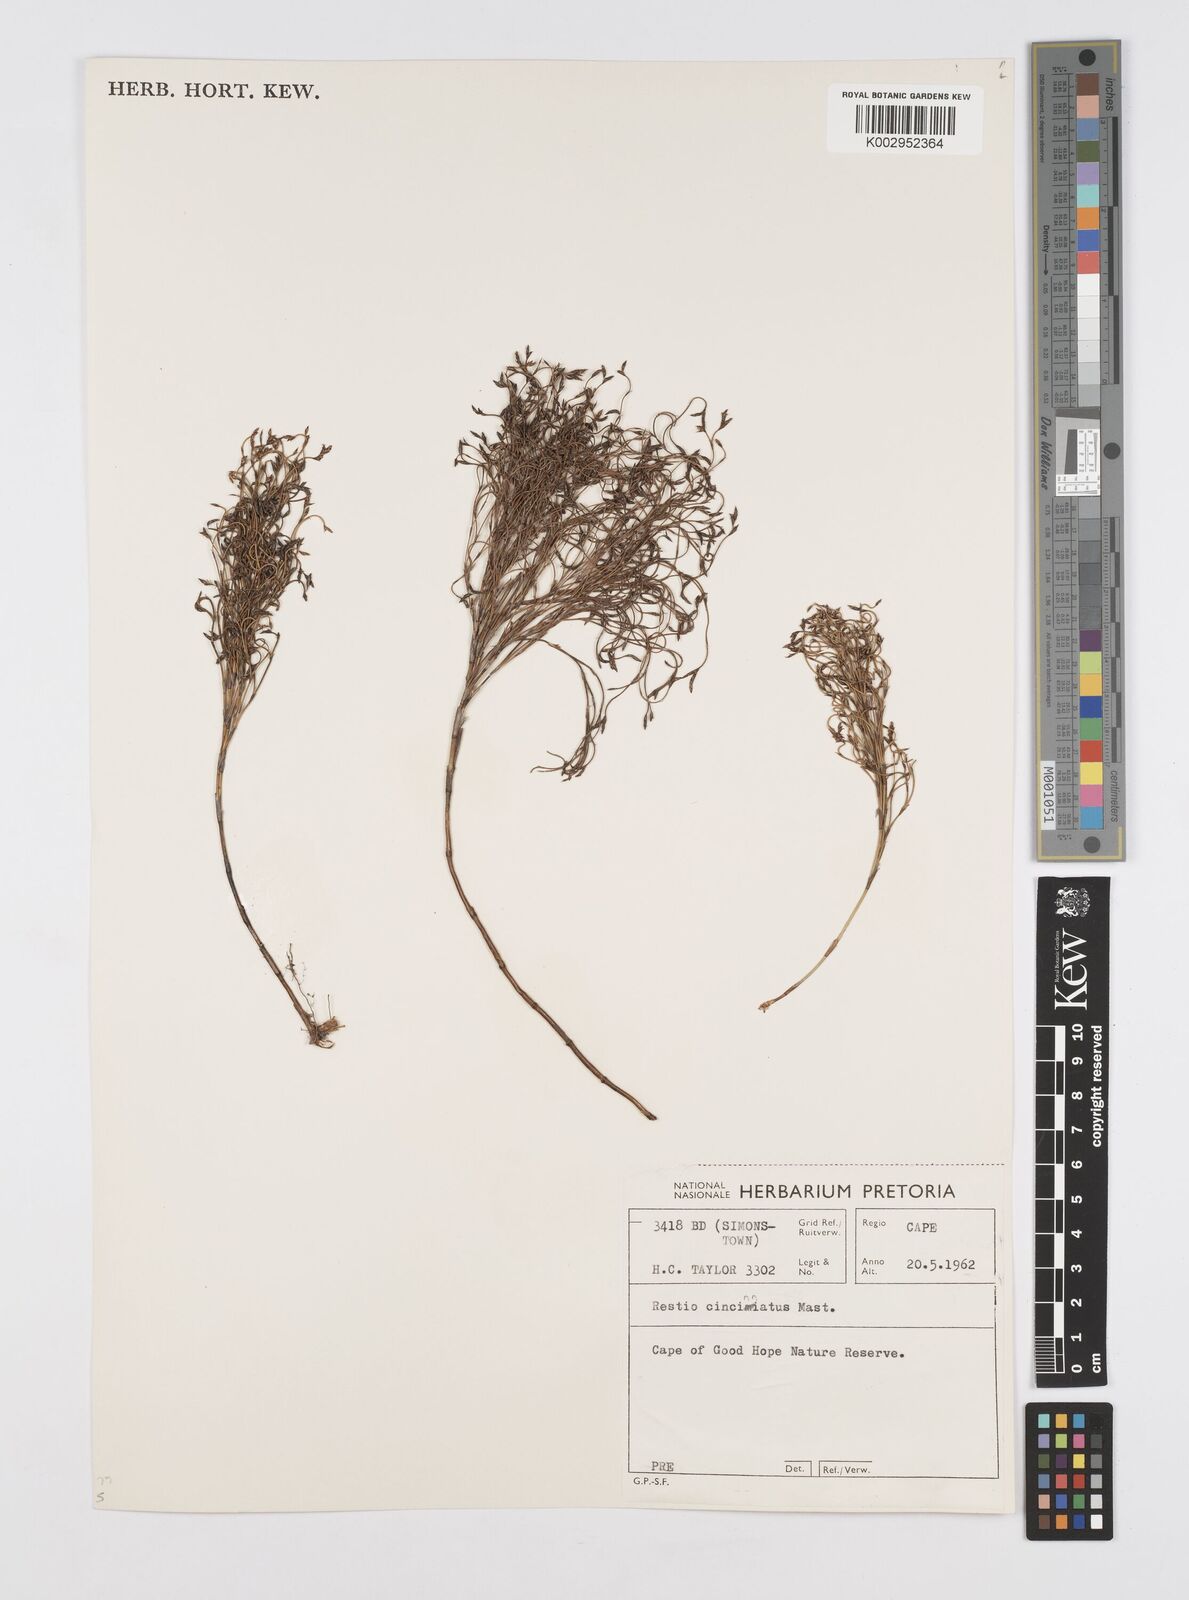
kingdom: Plantae
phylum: Tracheophyta
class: Liliopsida
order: Poales
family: Restionaceae
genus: Restio
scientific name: Restio cincinnatus
